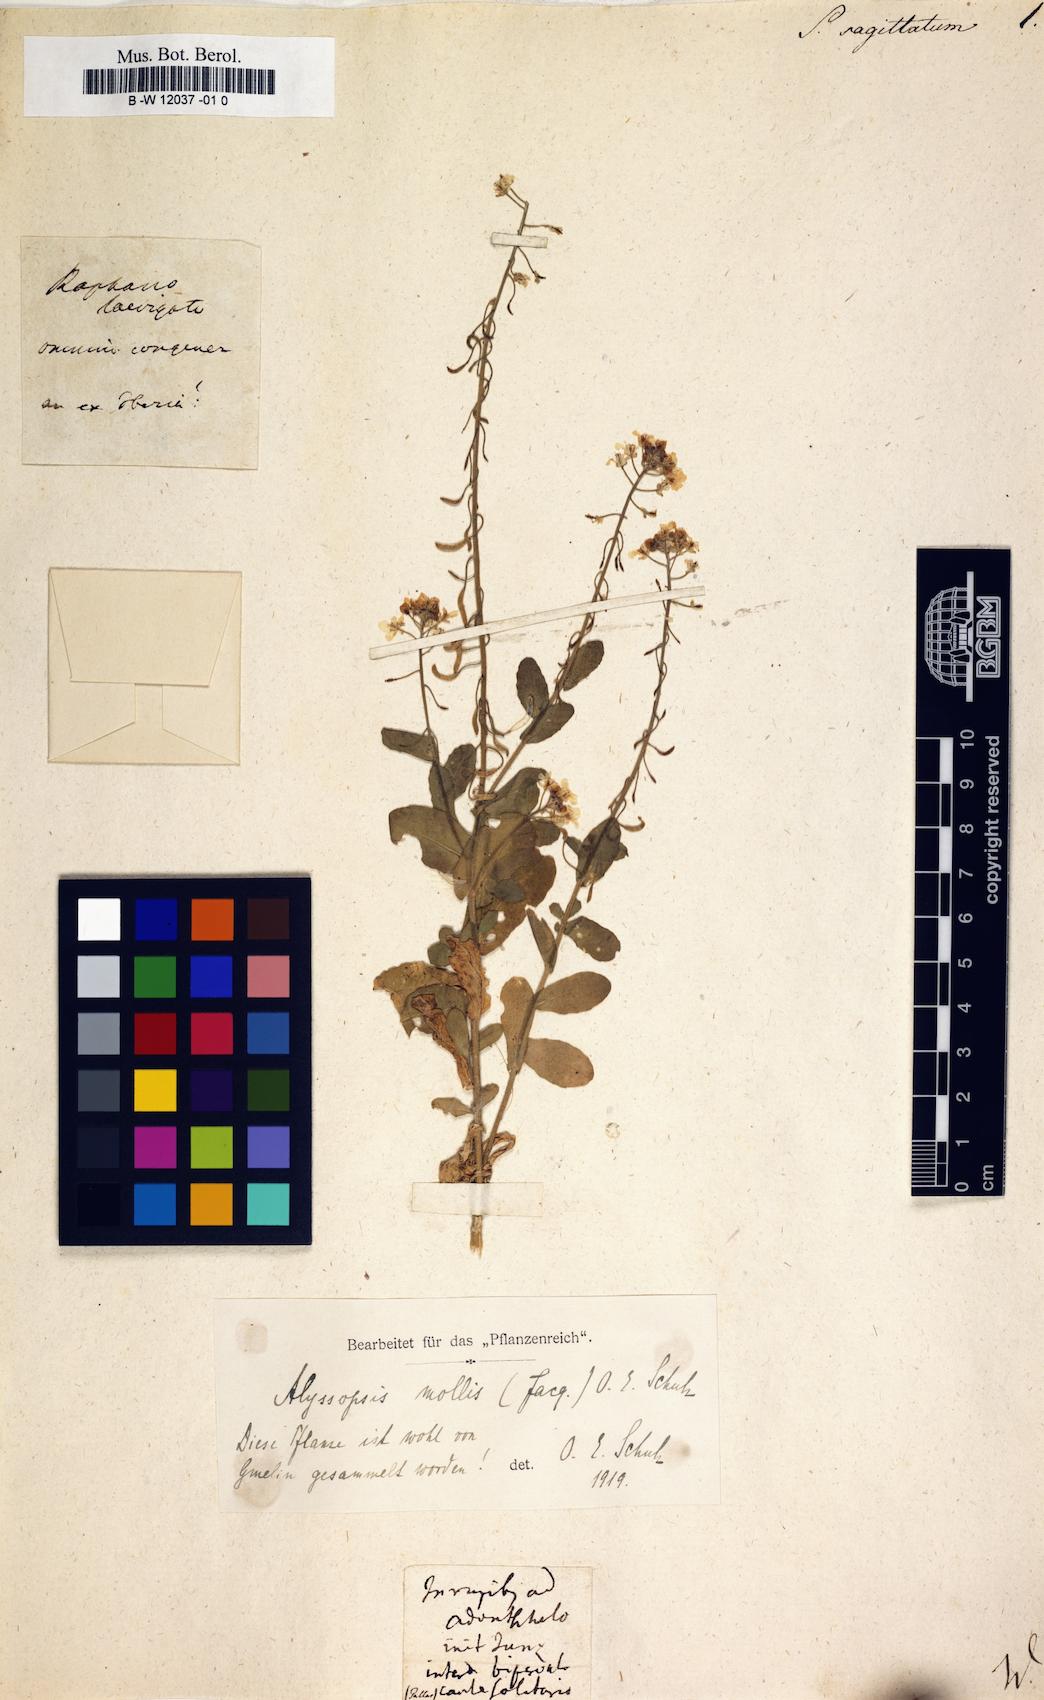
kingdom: Plantae
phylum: Tracheophyta
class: Magnoliopsida
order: Brassicales
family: Brassicaceae
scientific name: Brassicaceae
